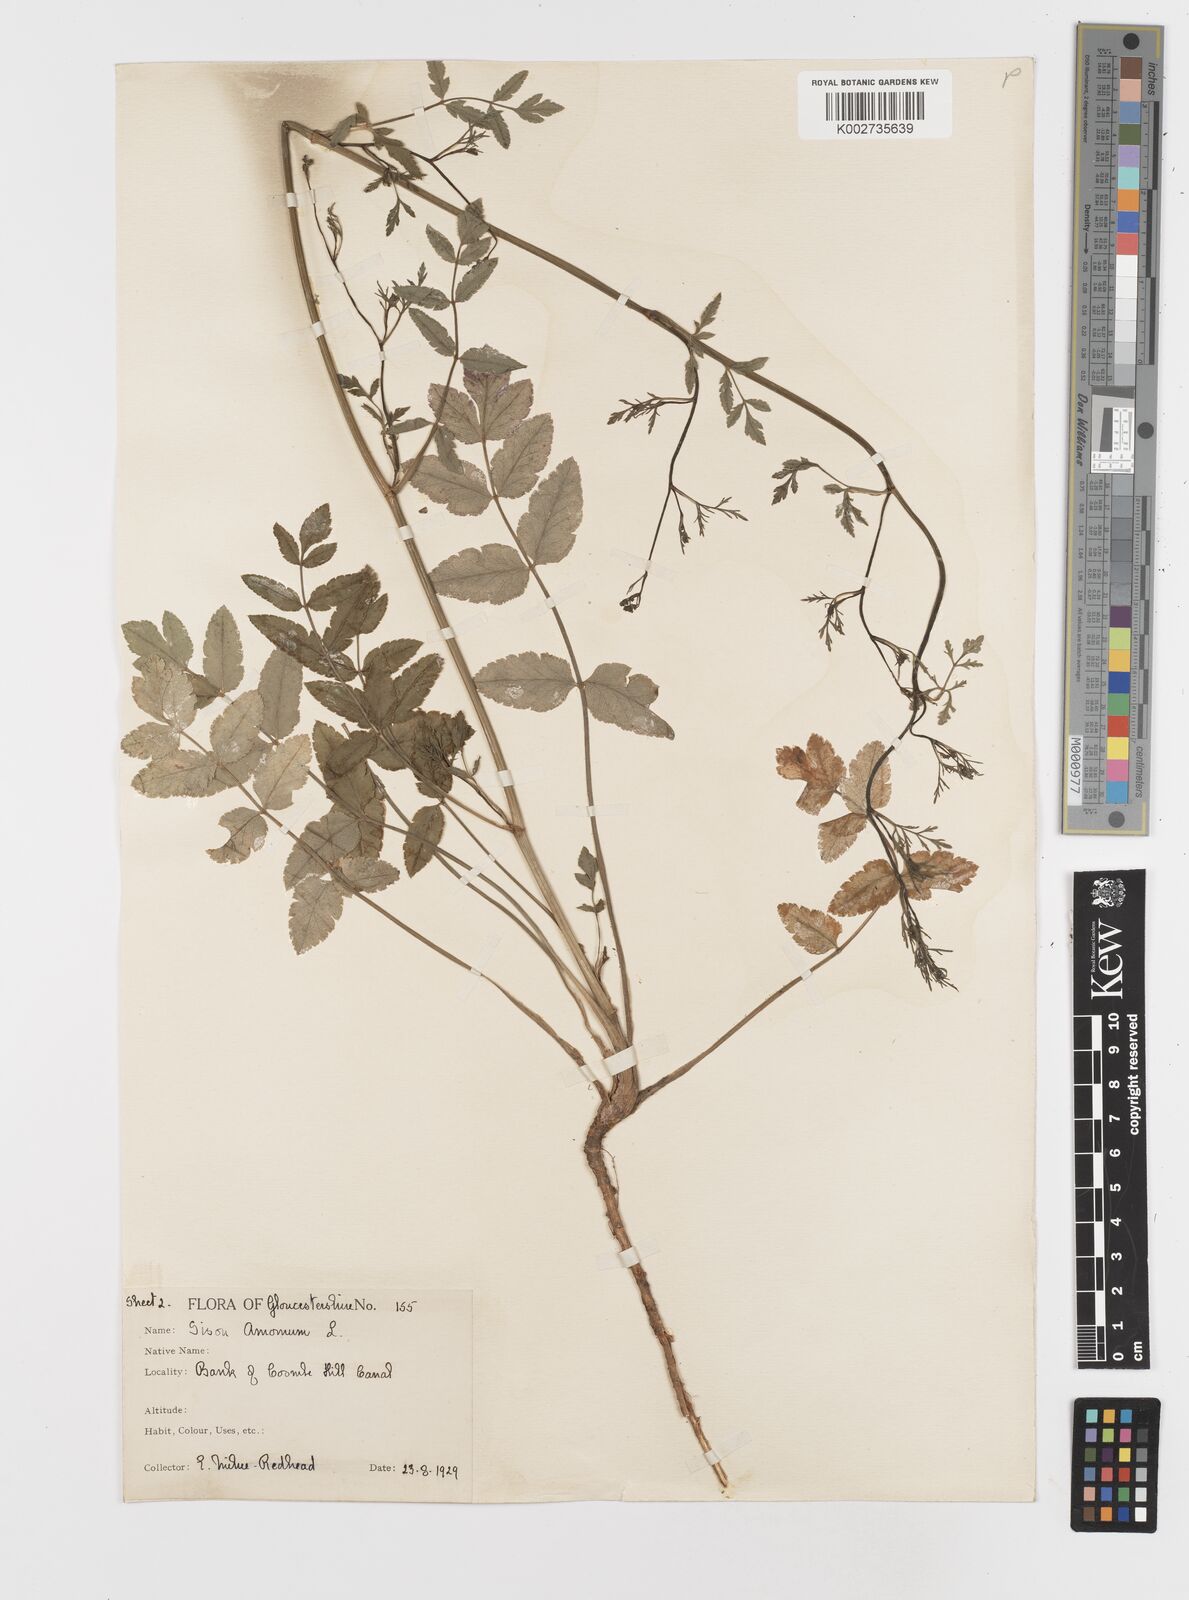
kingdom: Plantae
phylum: Tracheophyta
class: Magnoliopsida
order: Apiales
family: Apiaceae
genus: Sison
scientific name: Sison amomum
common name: Stone-parsley
